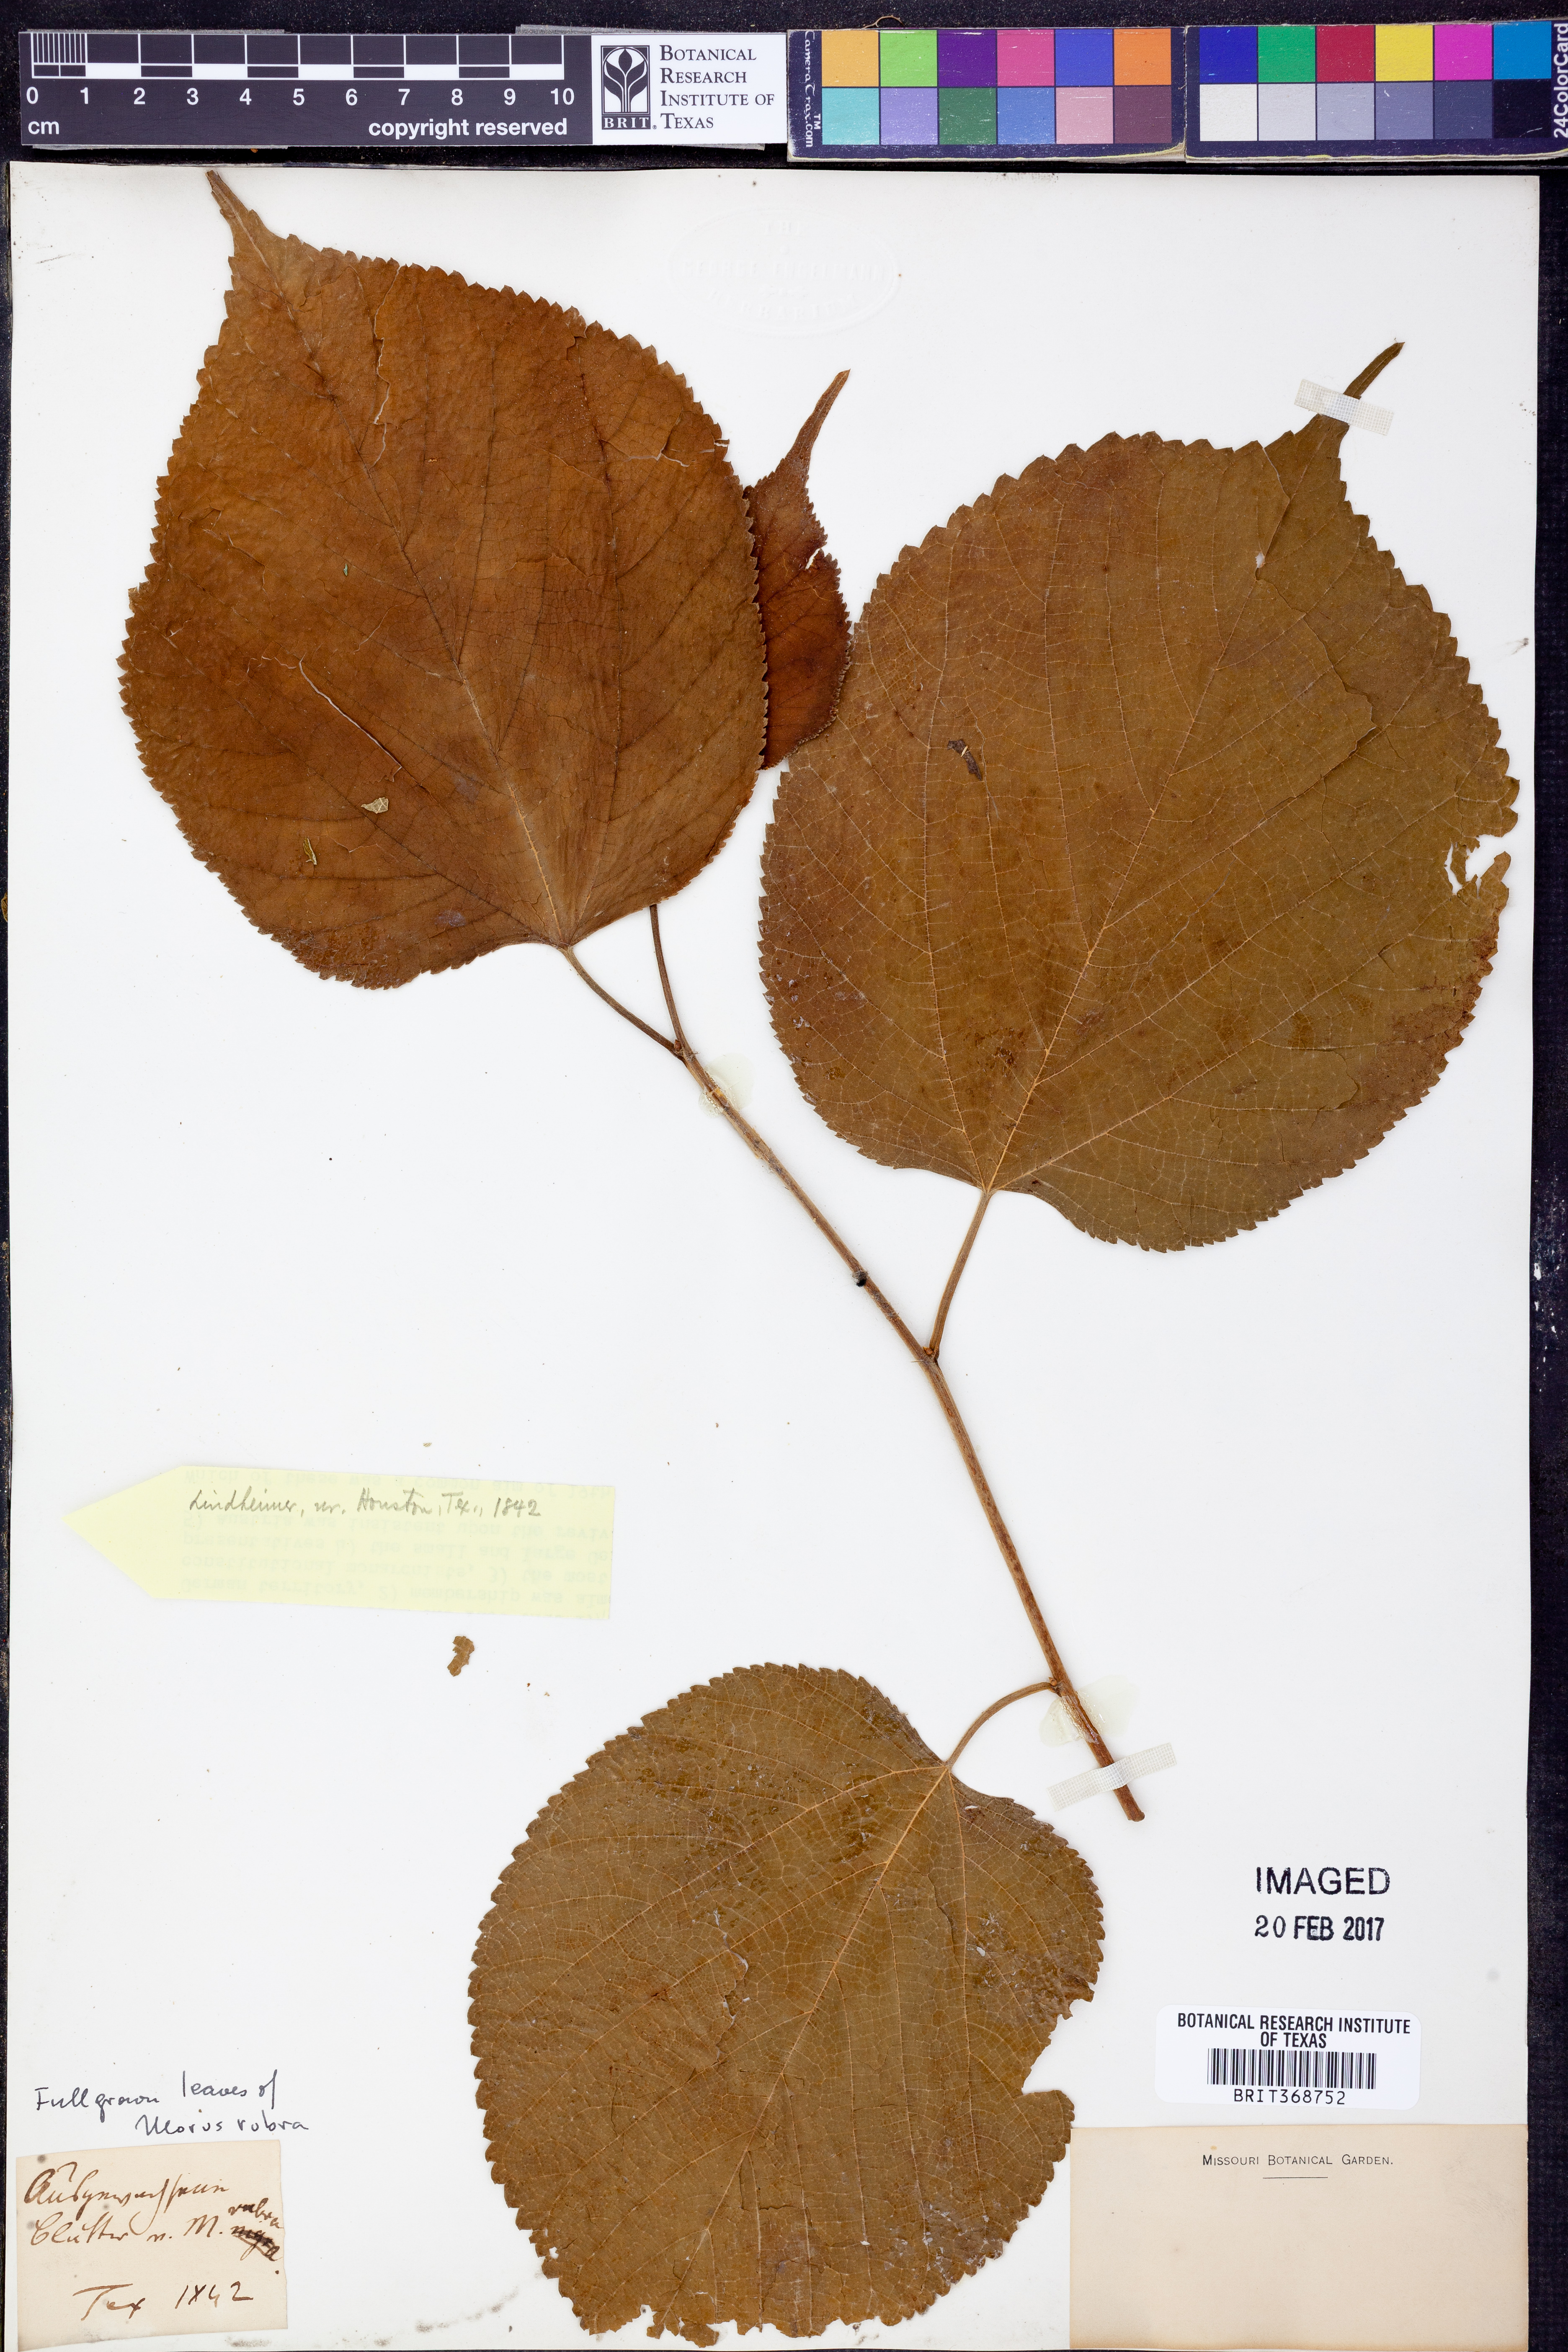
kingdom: Plantae
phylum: Tracheophyta
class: Magnoliopsida
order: Rosales
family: Moraceae
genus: Morus
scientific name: Morus rubra
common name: Red mulberry
